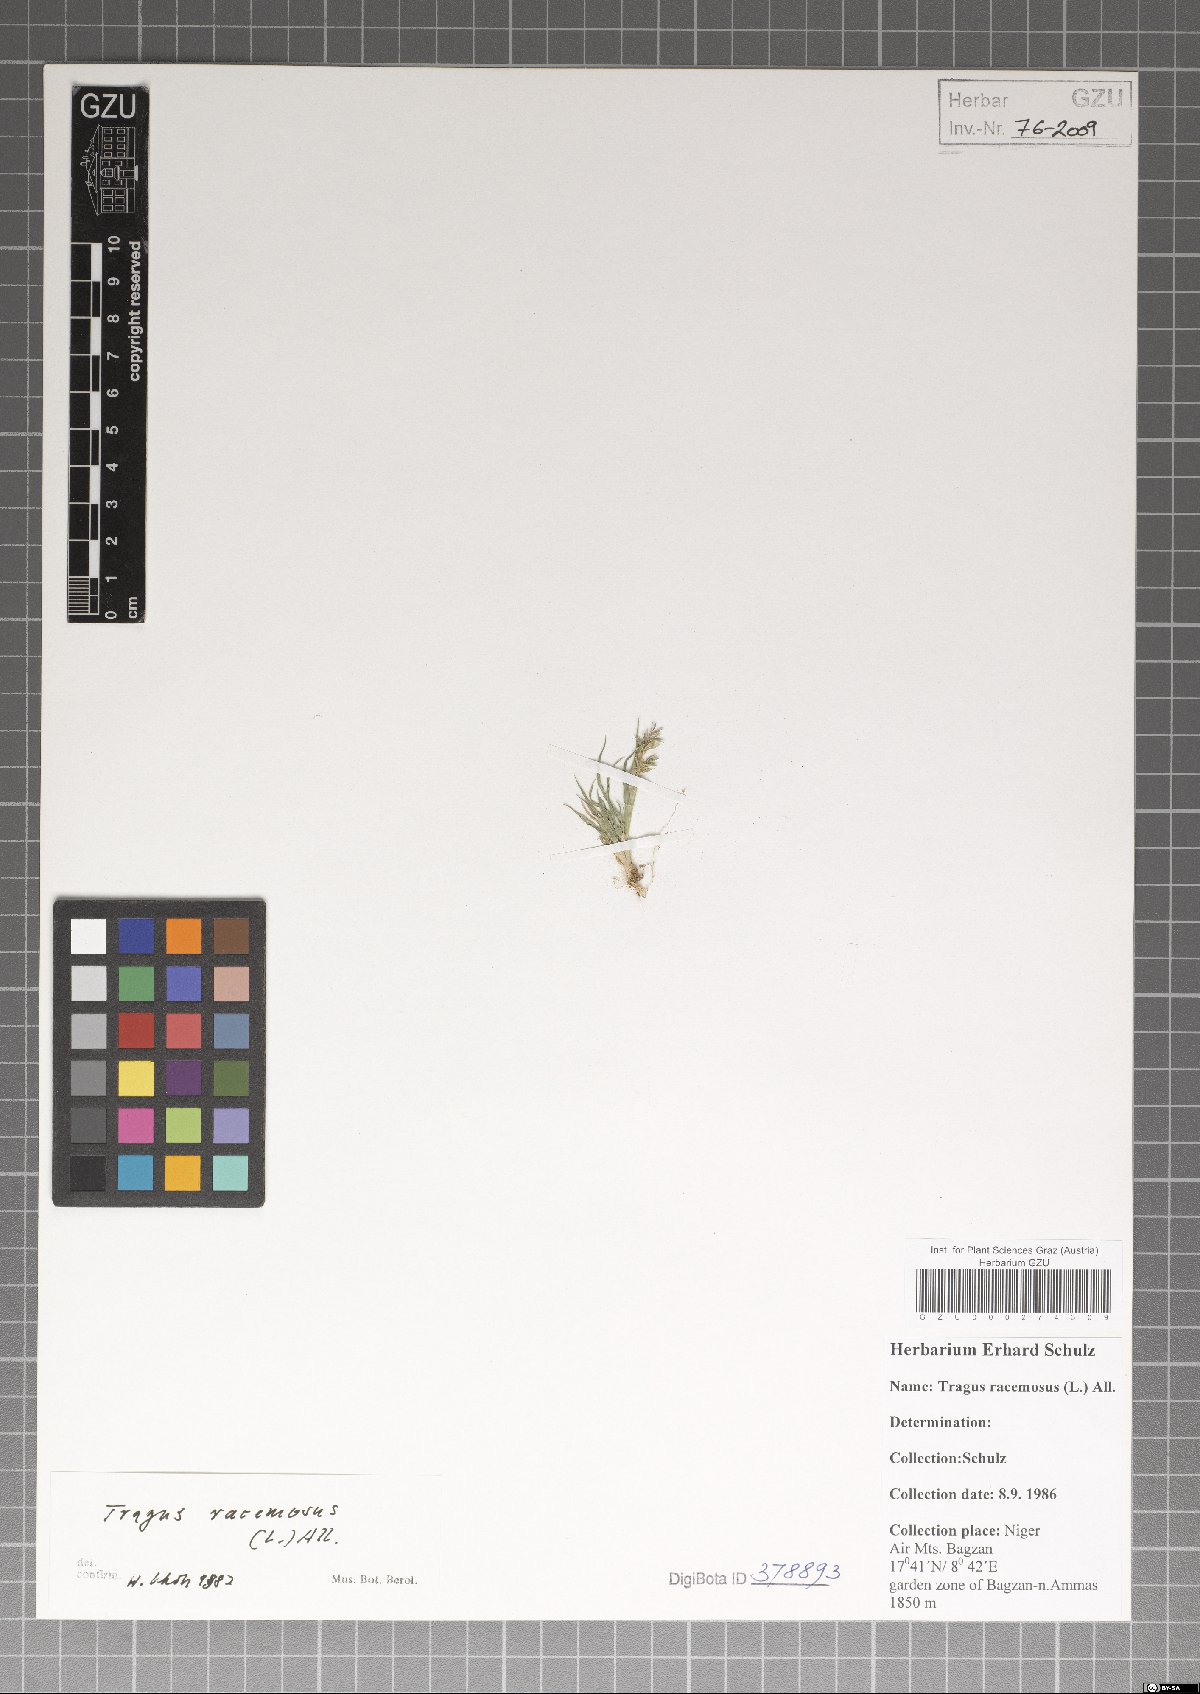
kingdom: Plantae
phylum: Tracheophyta
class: Liliopsida
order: Poales
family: Poaceae
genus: Tragus
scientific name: Tragus racemosus
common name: European bur-grass
